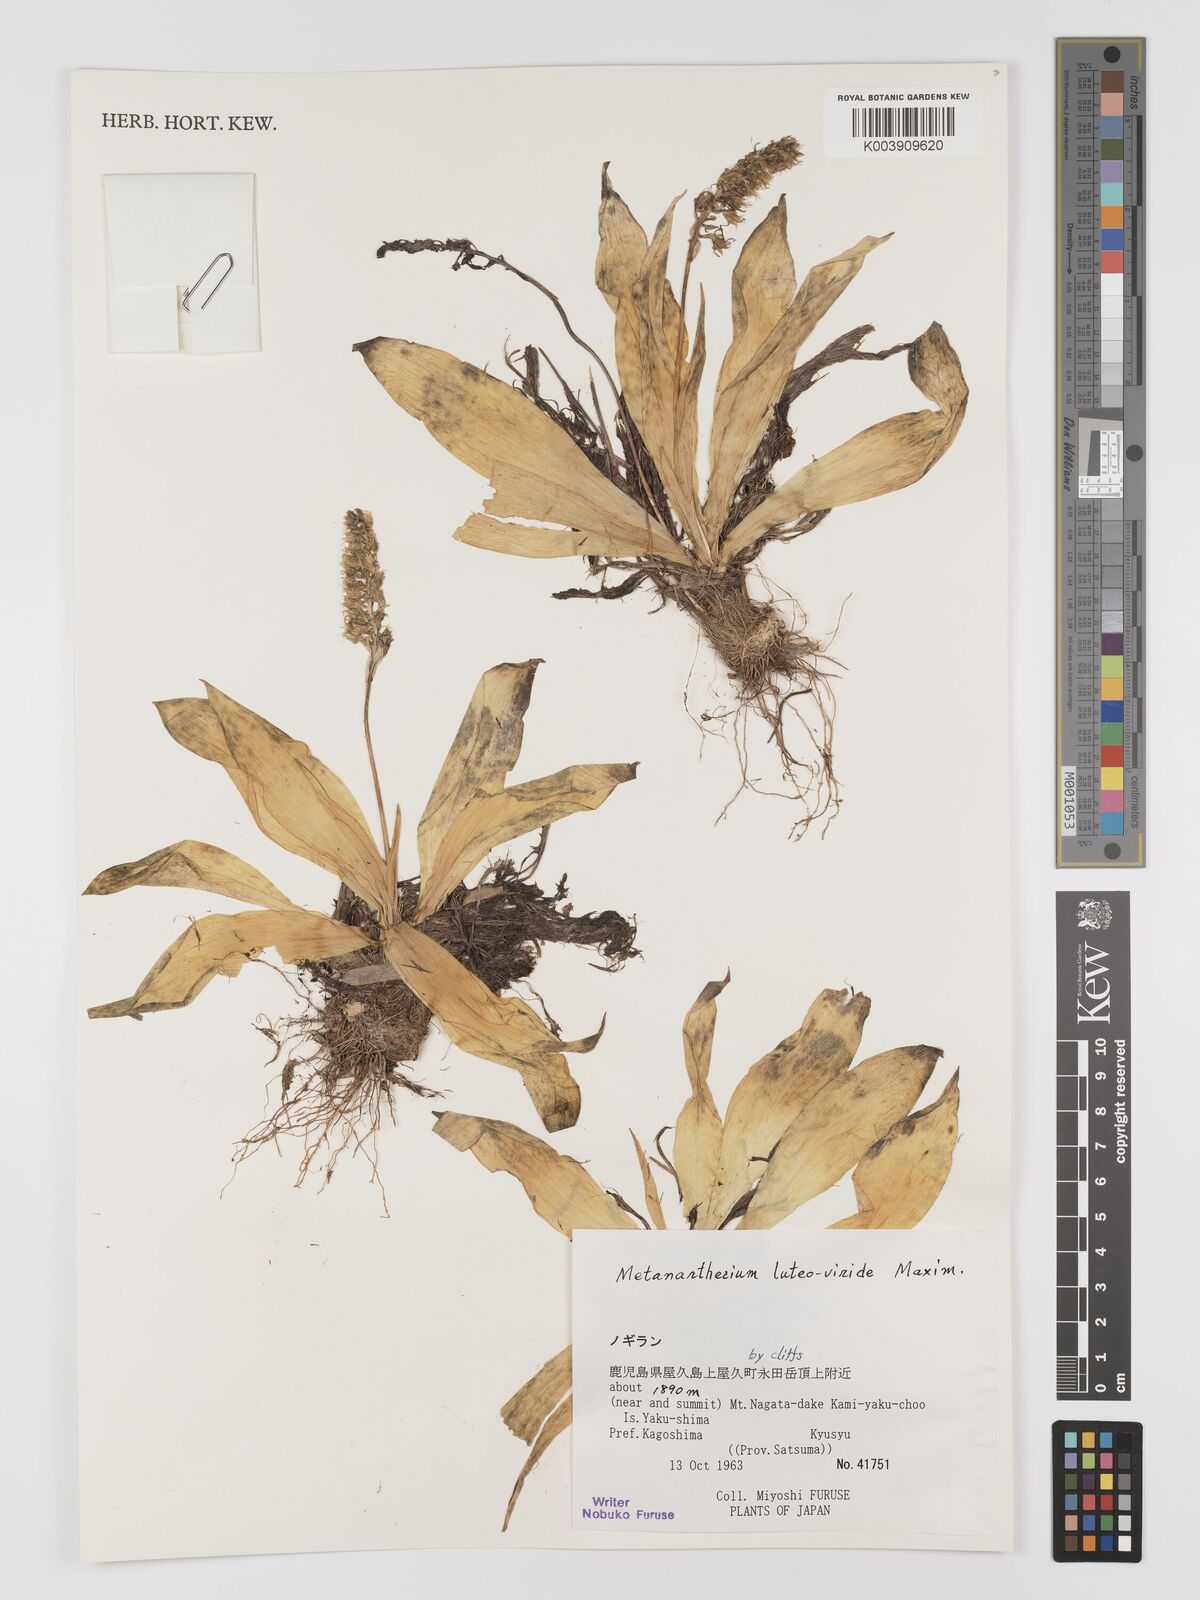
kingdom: Plantae
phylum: Tracheophyta
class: Liliopsida
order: Dioscoreales
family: Nartheciaceae
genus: Metanarthecium
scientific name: Metanarthecium luteoviride
